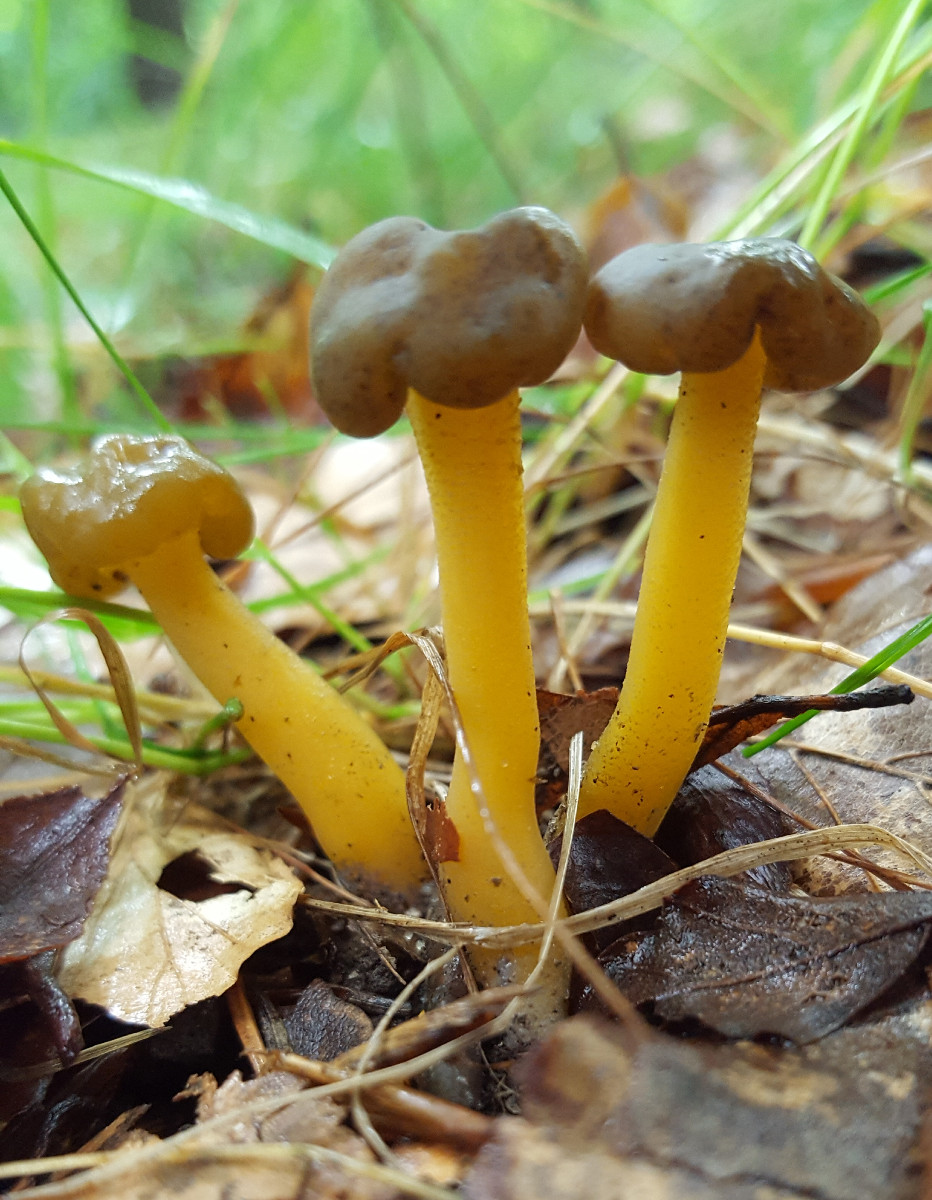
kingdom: Fungi
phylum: Ascomycota
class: Leotiomycetes
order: Leotiales
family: Leotiaceae
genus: Leotia
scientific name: Leotia lubrica
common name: ravsvamp
